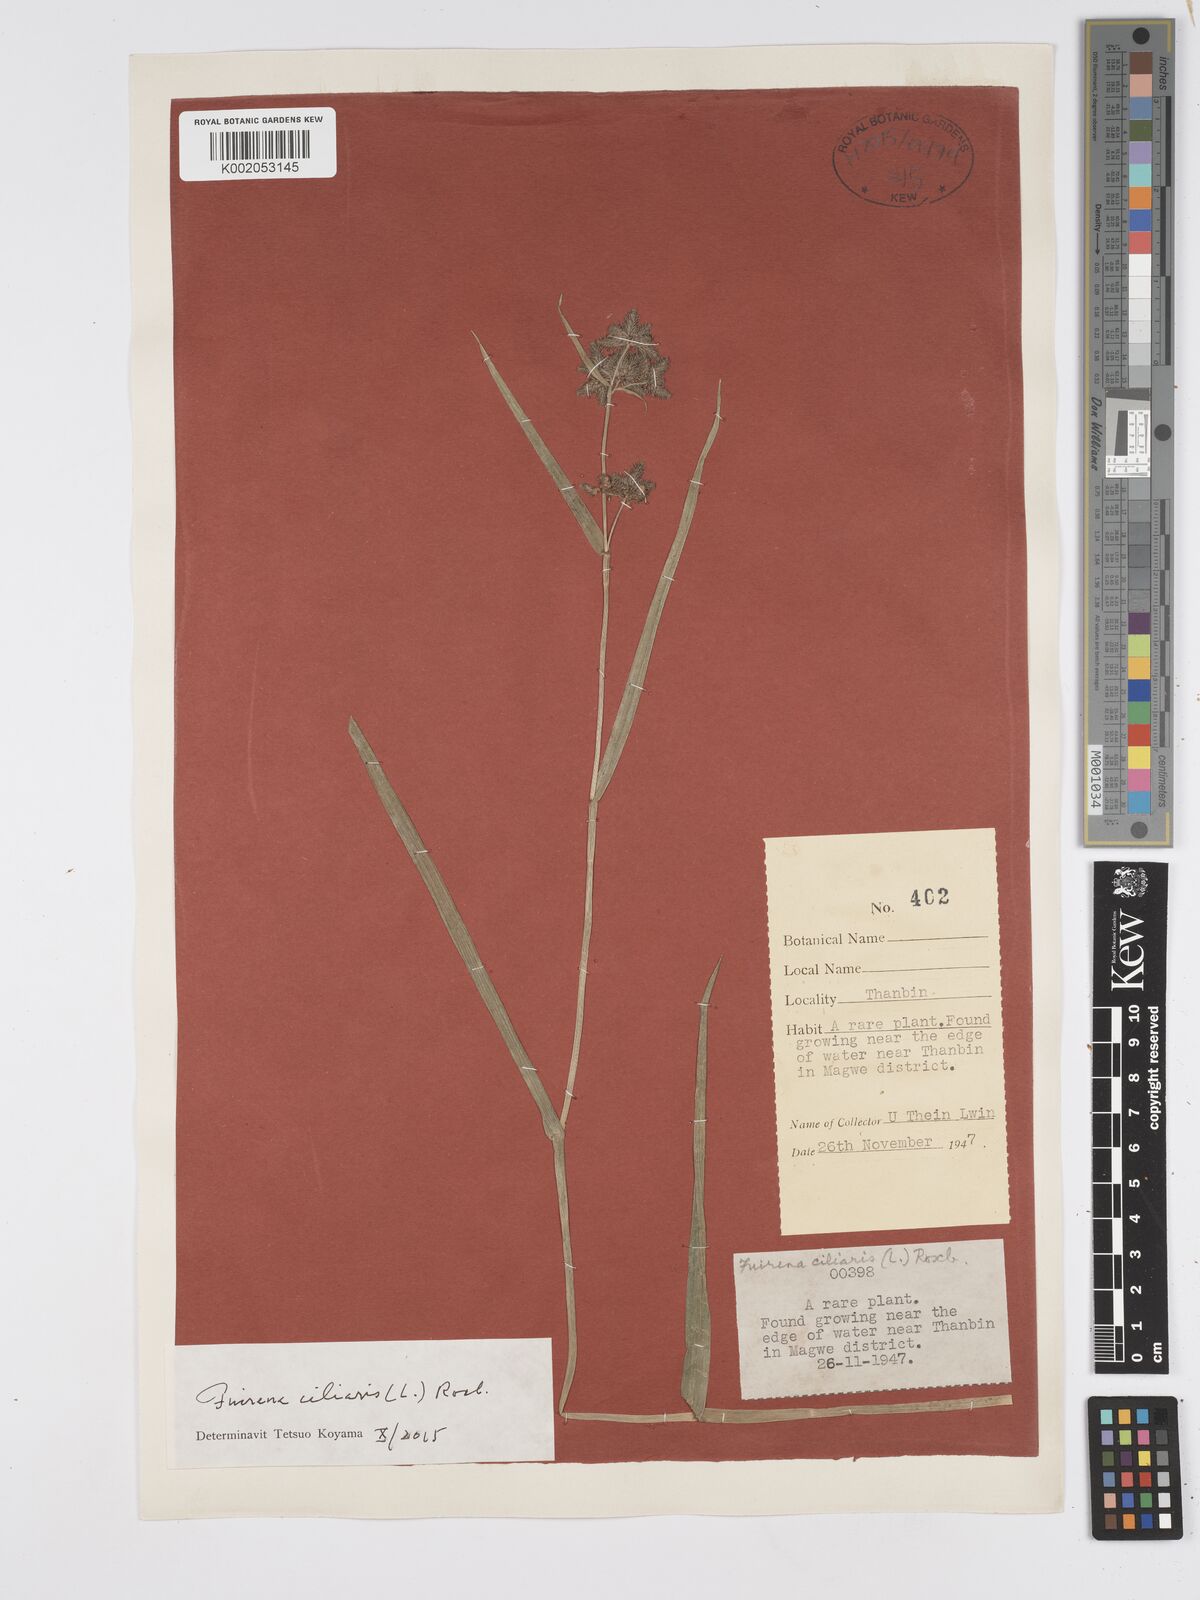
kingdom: Plantae
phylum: Tracheophyta
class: Liliopsida
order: Poales
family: Cyperaceae
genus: Fuirena
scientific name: Fuirena ciliaris
